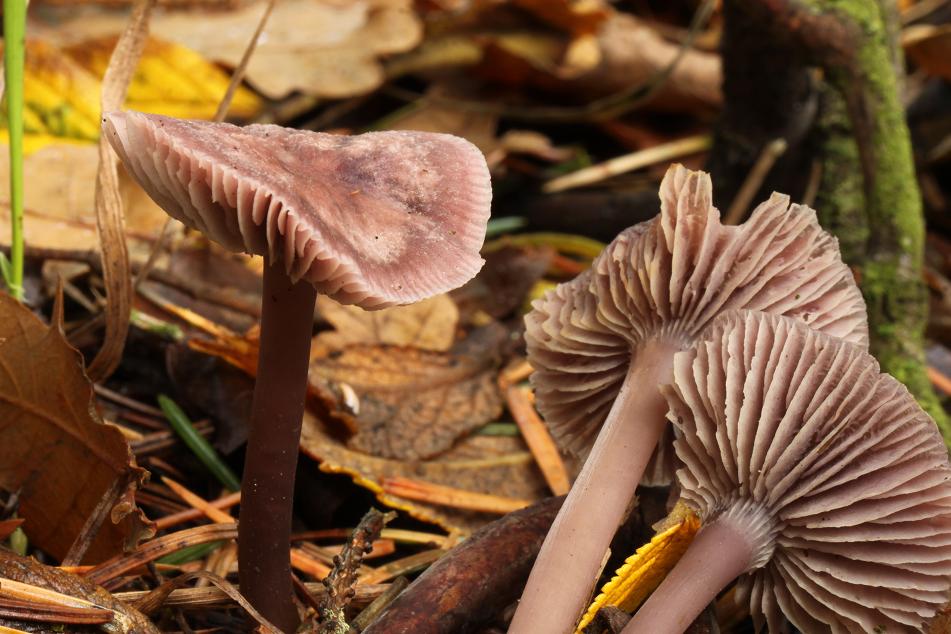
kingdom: Fungi
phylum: Basidiomycota
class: Agaricomycetes
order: Agaricales
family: Mycenaceae
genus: Prunulus
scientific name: Prunulus diosmus
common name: tobaks-huesvamp
